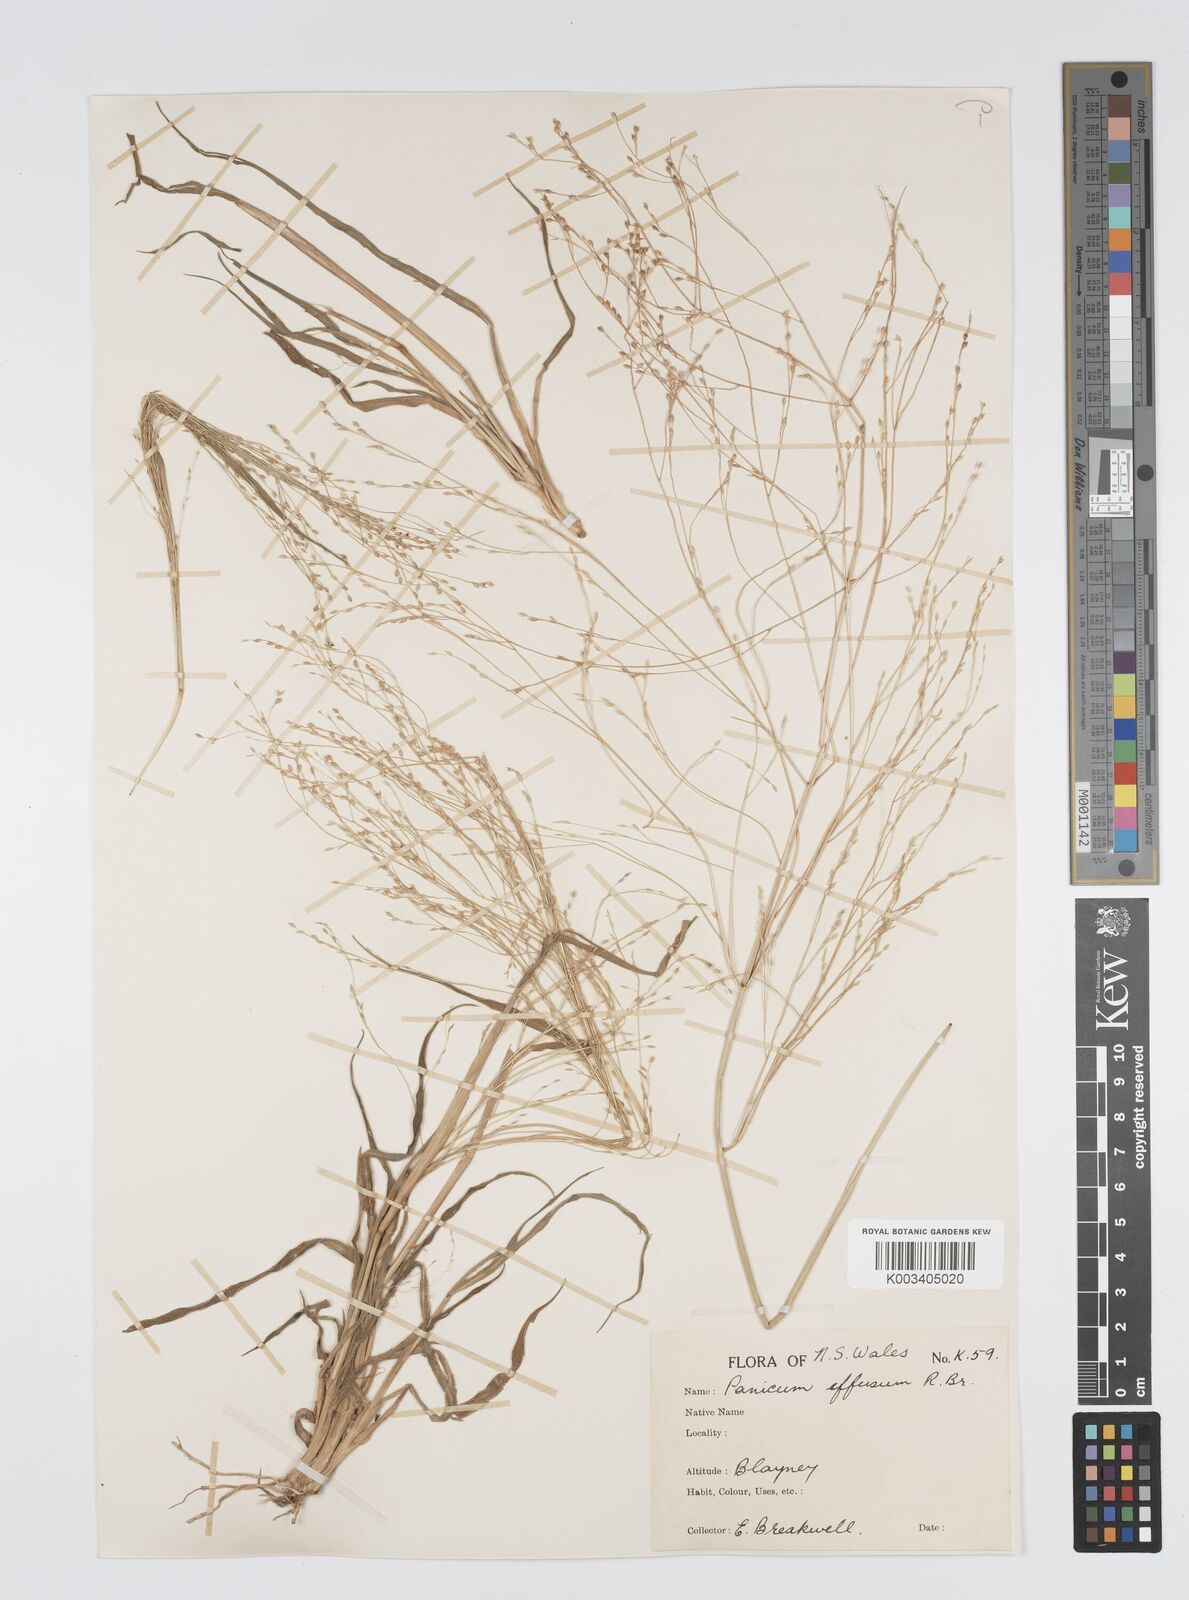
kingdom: Plantae
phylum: Tracheophyta
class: Liliopsida
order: Poales
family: Poaceae
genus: Panicum
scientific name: Panicum effusum
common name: Hairy panic grass
